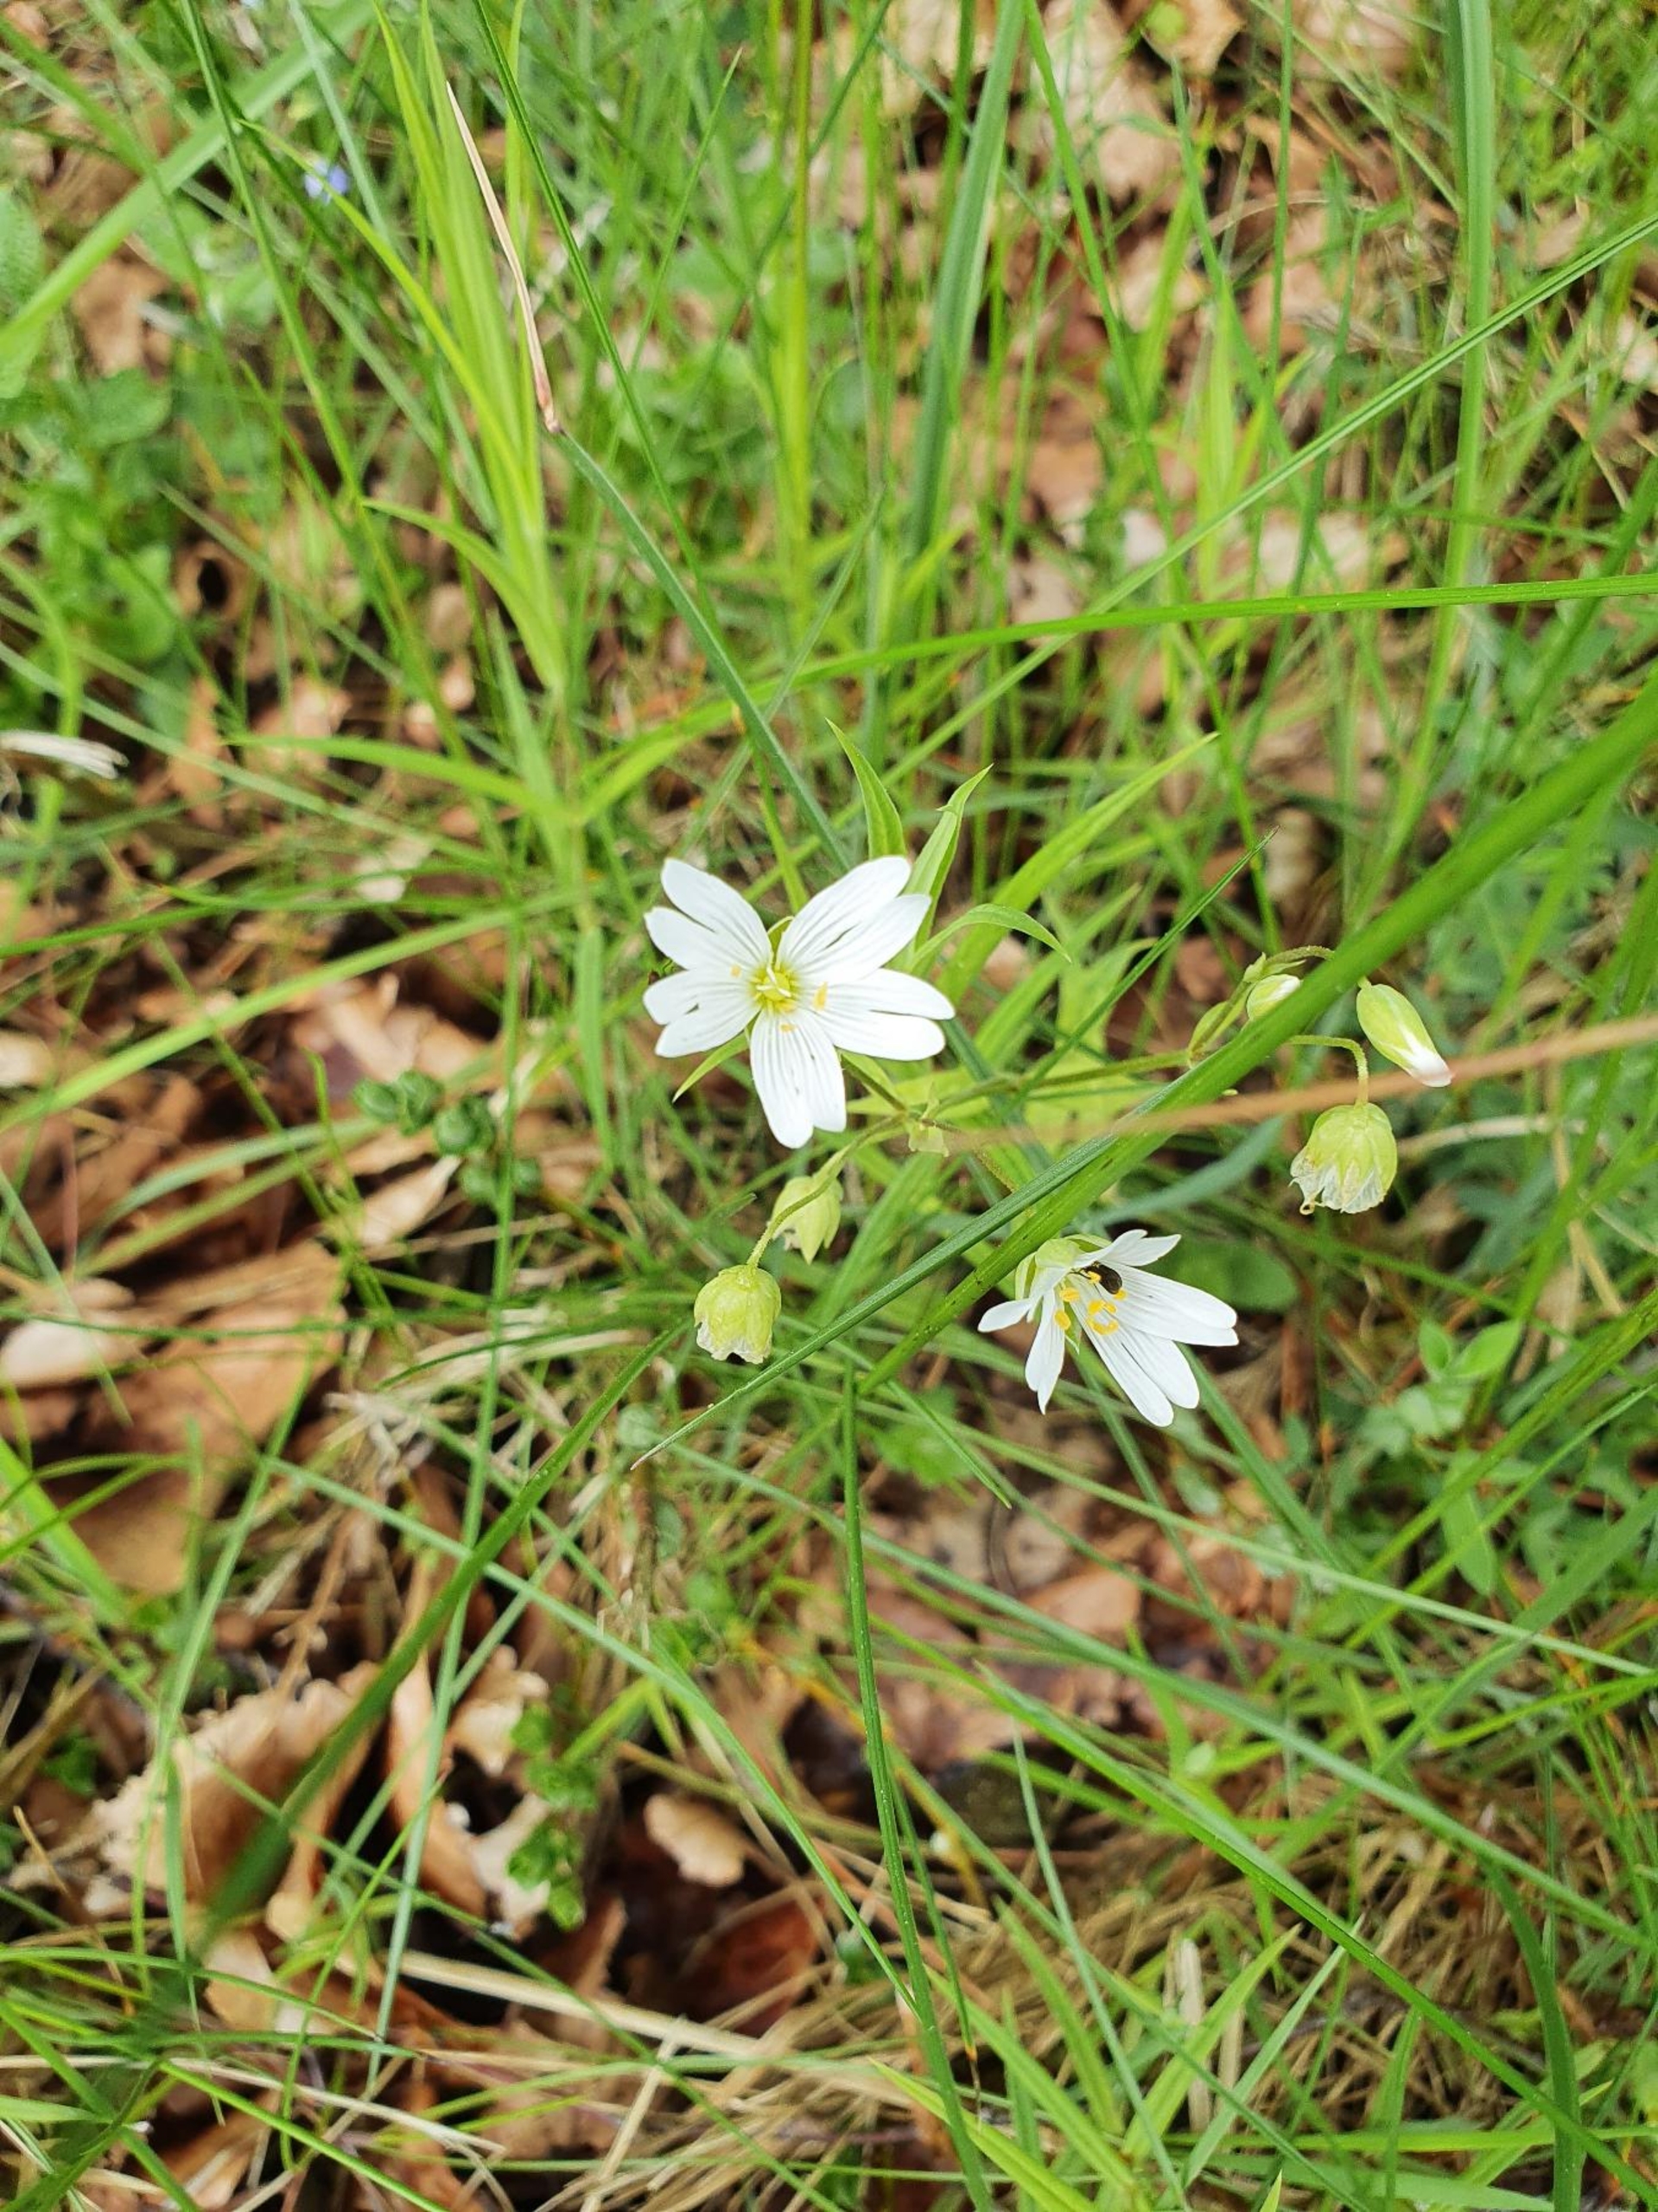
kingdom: Plantae
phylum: Tracheophyta
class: Magnoliopsida
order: Caryophyllales
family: Caryophyllaceae
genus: Rabelera
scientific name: Rabelera holostea
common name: Stor fladstjerne
